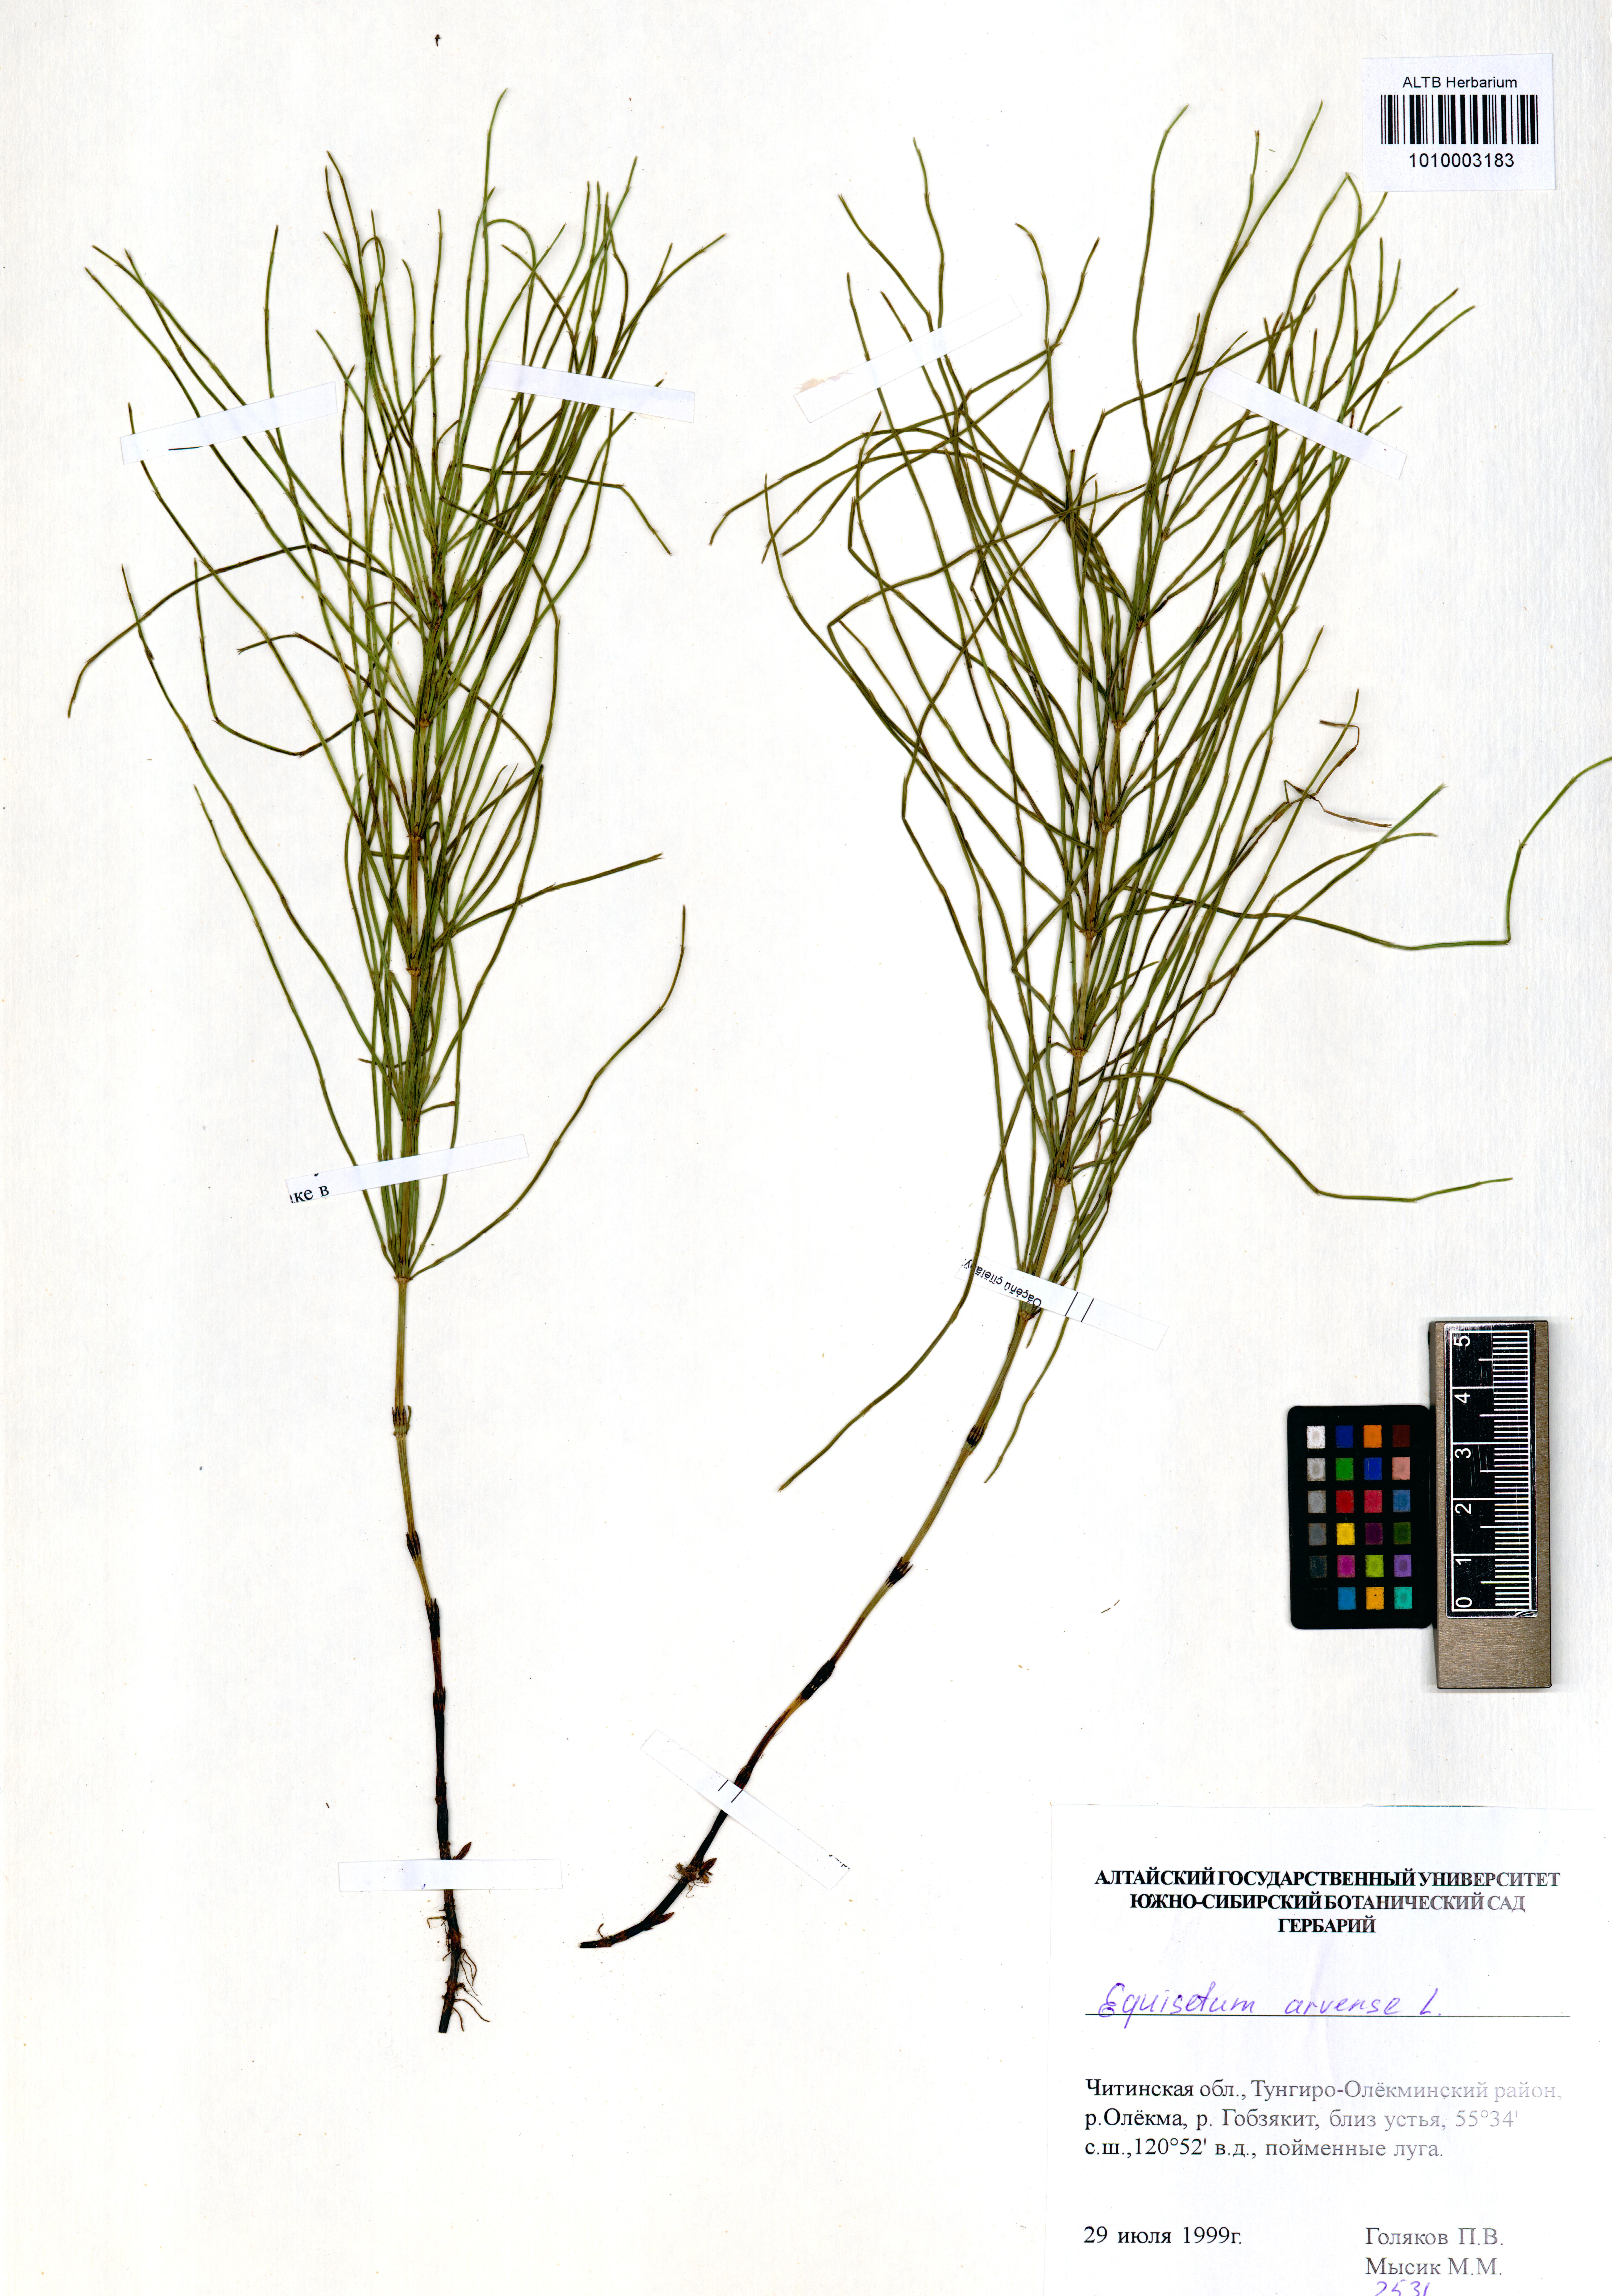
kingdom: Plantae
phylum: Tracheophyta
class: Polypodiopsida
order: Equisetales
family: Equisetaceae
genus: Equisetum
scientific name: Equisetum arvense
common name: Field horsetail
